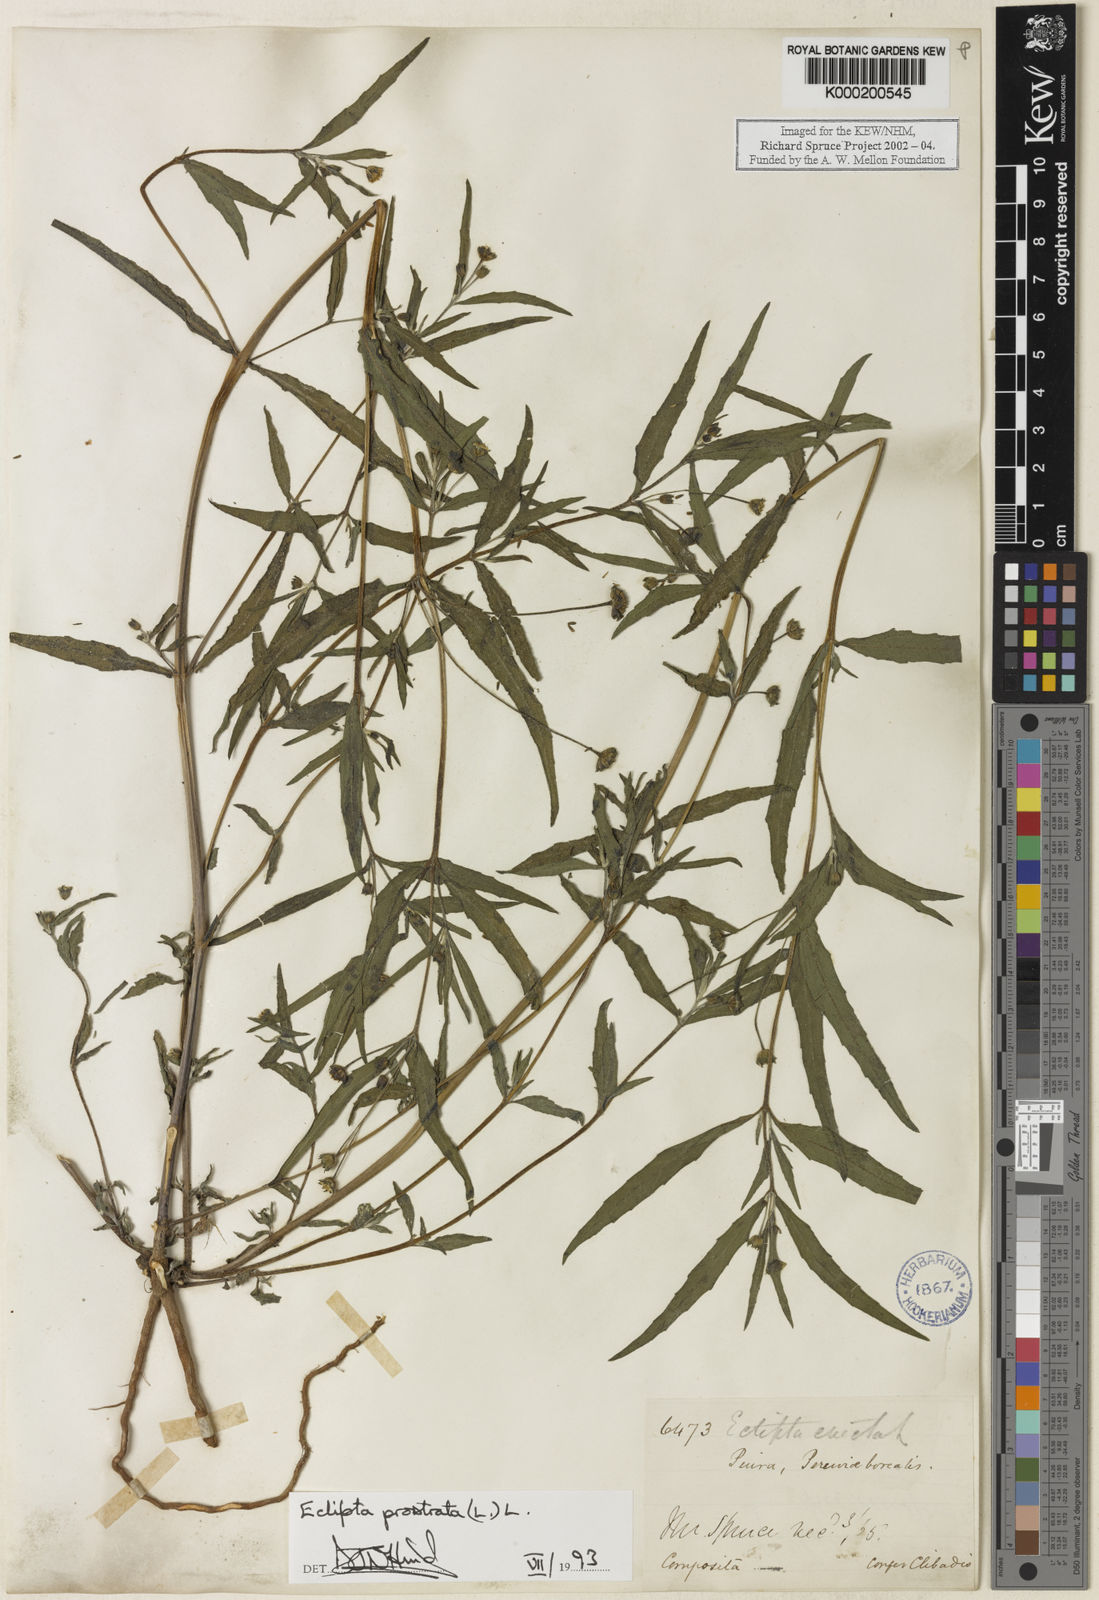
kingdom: Plantae
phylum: Tracheophyta
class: Magnoliopsida
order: Asterales
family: Asteraceae
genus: Eclipta
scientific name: Eclipta prostrata
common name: False daisy
